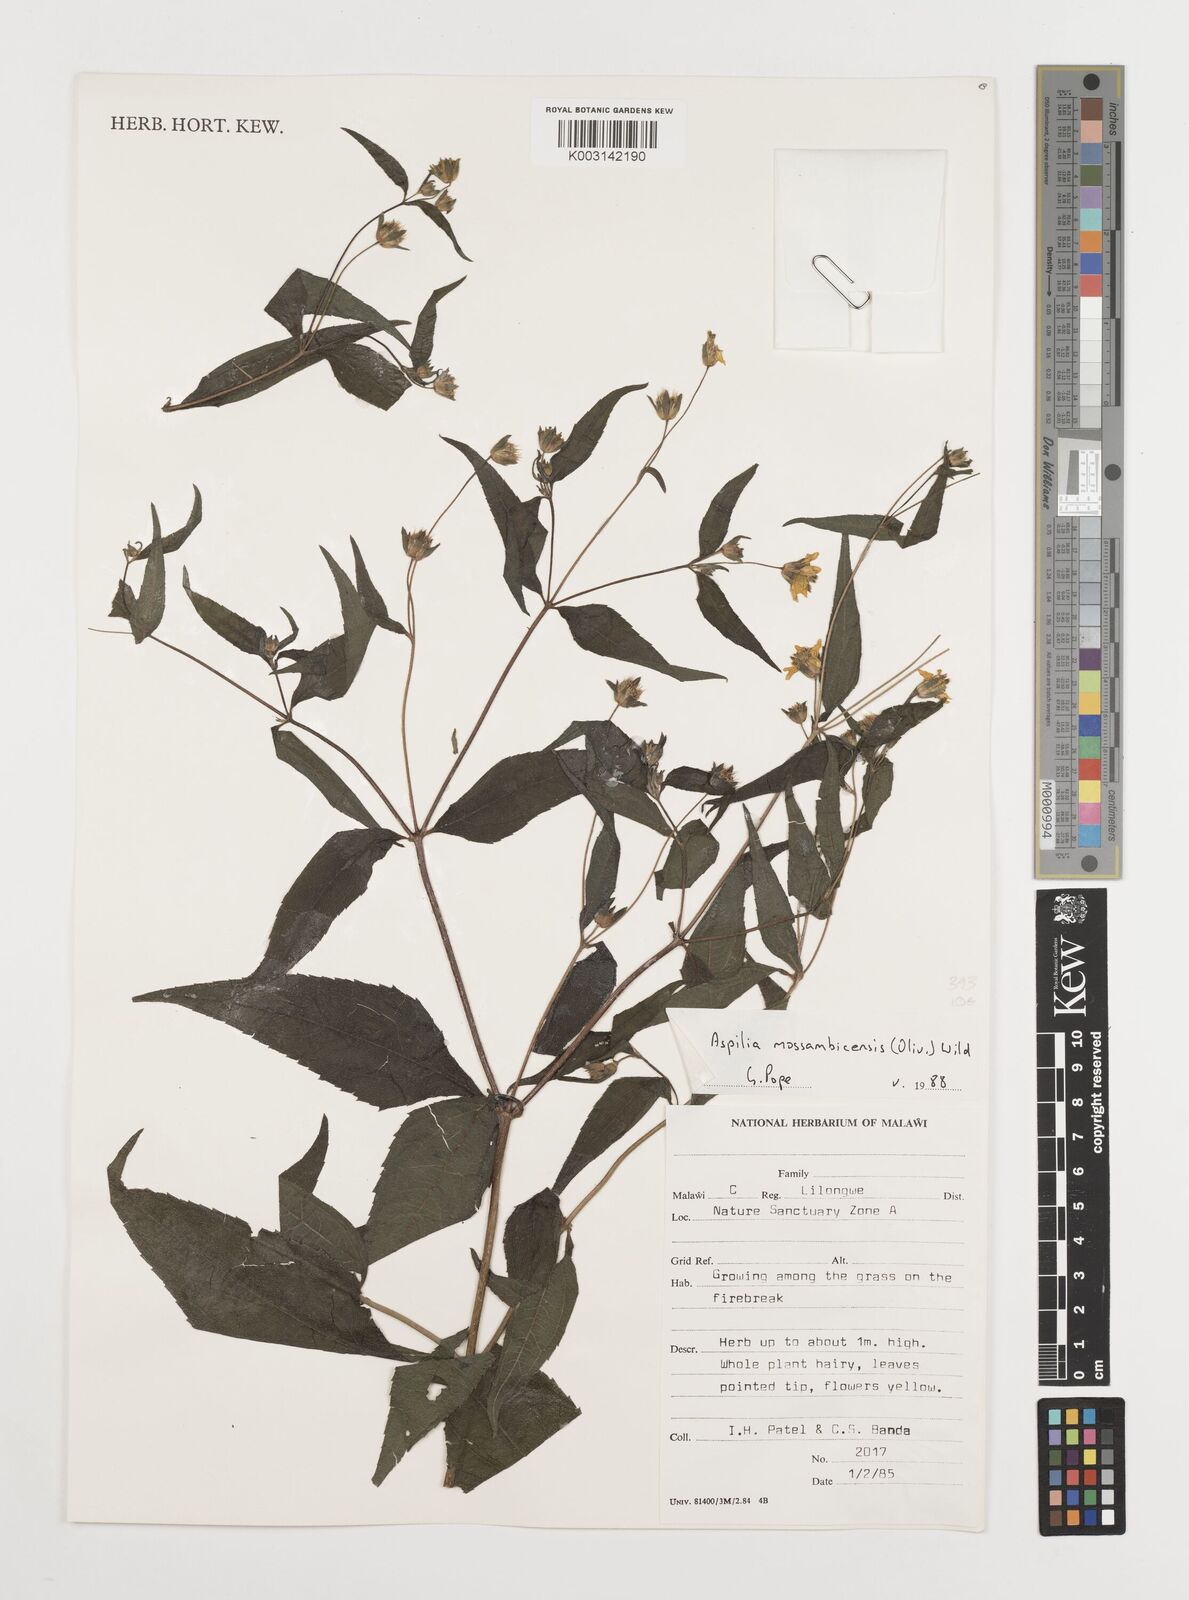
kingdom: Plantae
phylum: Tracheophyta
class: Magnoliopsida
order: Asterales
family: Asteraceae
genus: Aspilia
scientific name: Aspilia mossambicensis
